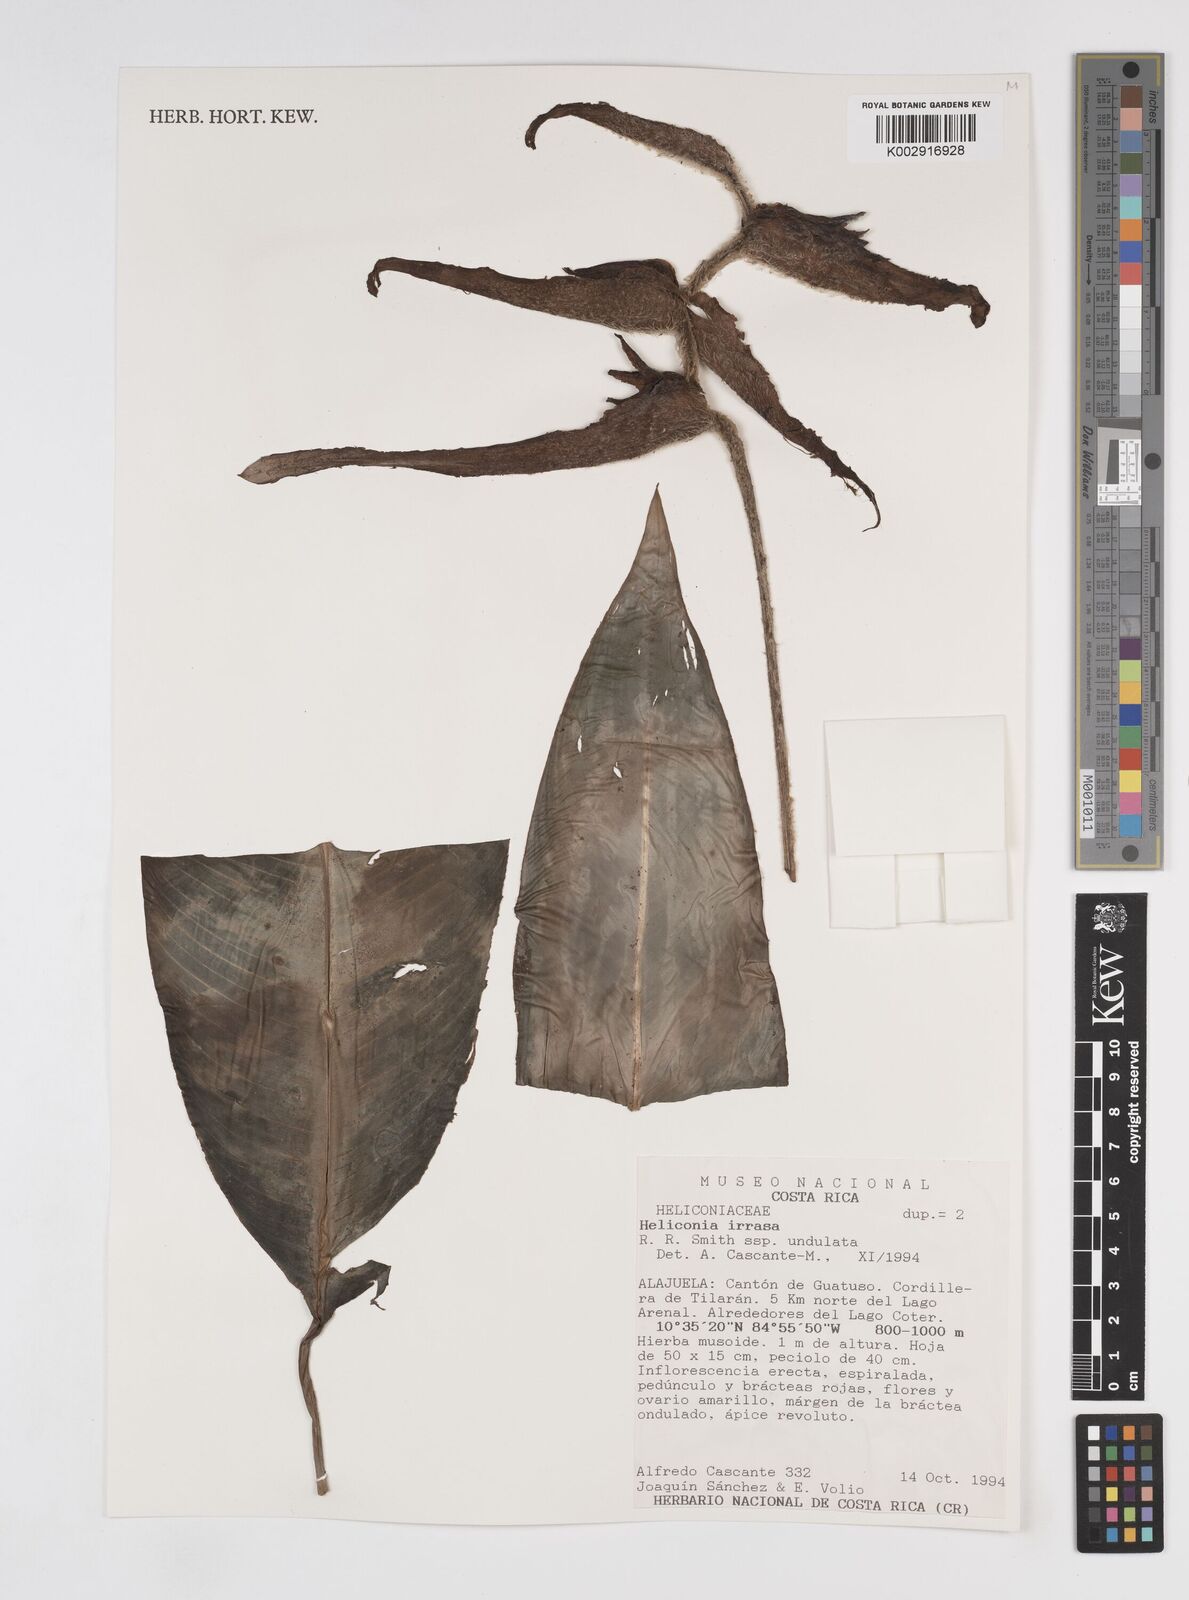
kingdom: Plantae
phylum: Tracheophyta
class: Liliopsida
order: Zingiberales
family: Heliconiaceae
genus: Heliconia
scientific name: Heliconia irrasa
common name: Wild plantain
